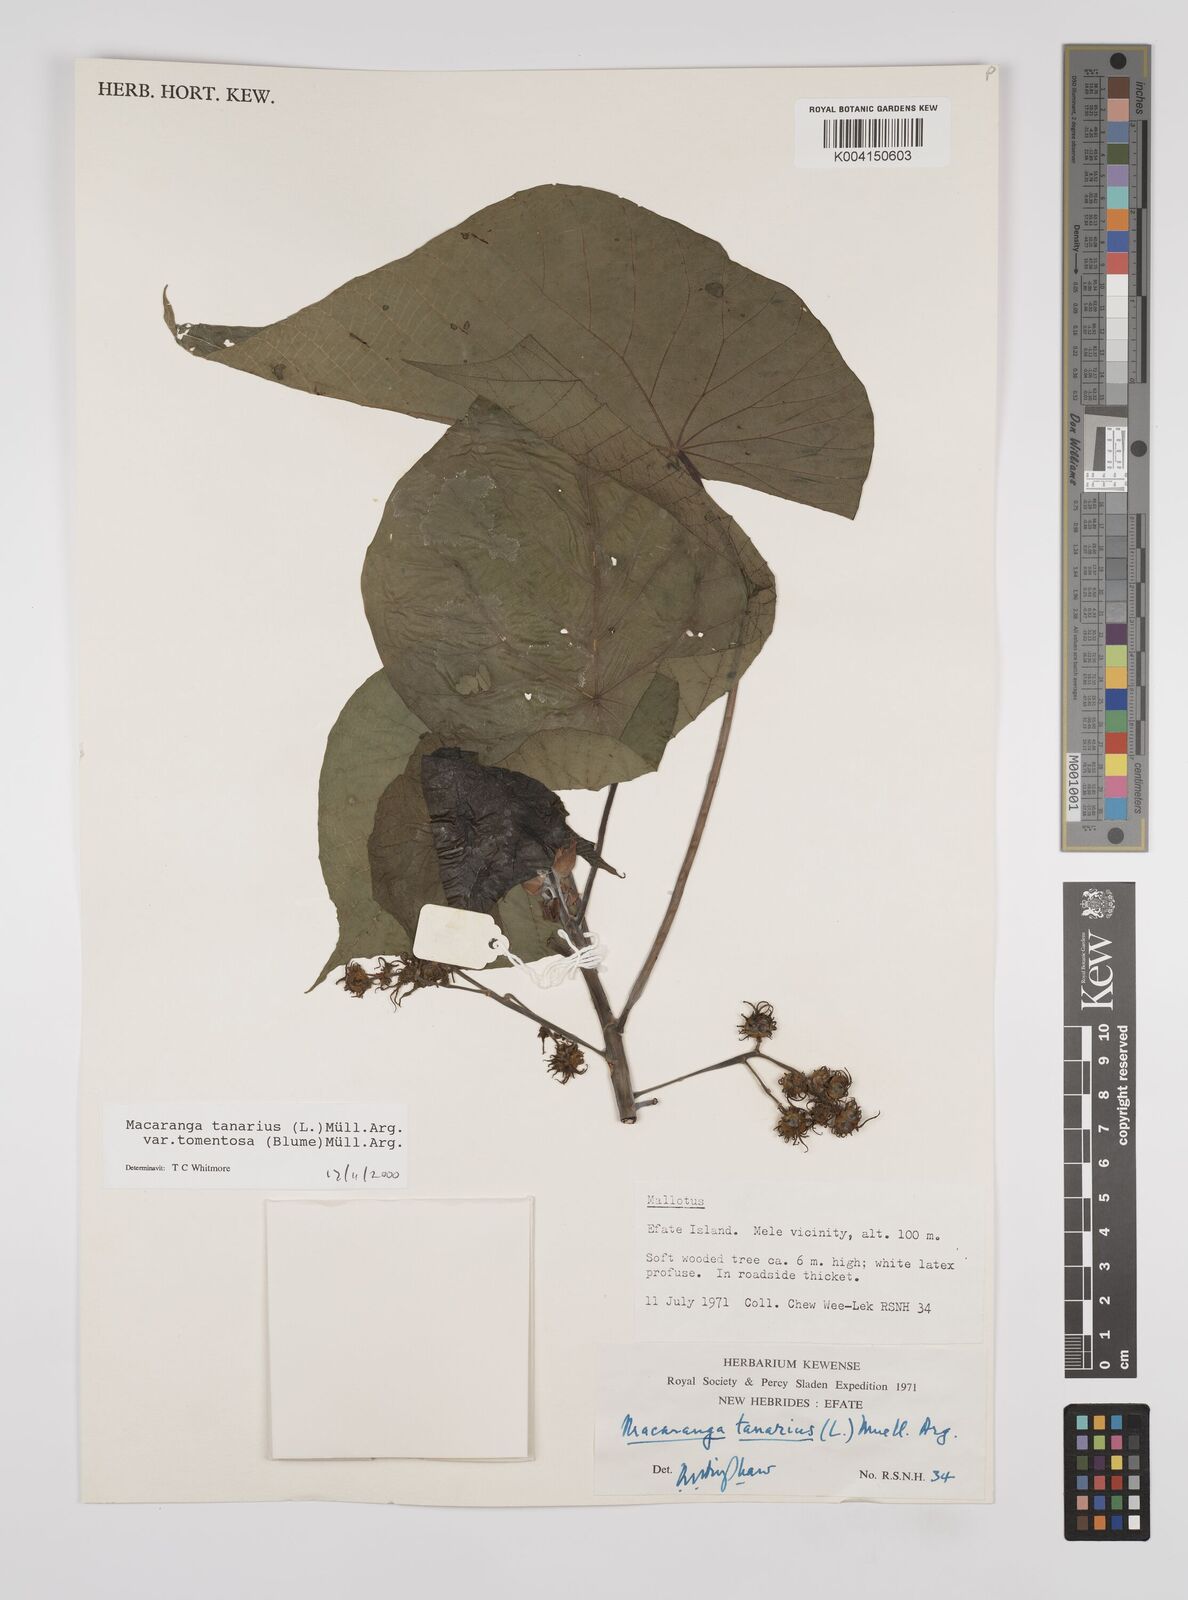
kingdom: Plantae
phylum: Tracheophyta
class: Magnoliopsida
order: Malpighiales
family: Euphorbiaceae
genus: Macaranga
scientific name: Macaranga tanarius
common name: Parasol leaf tree
